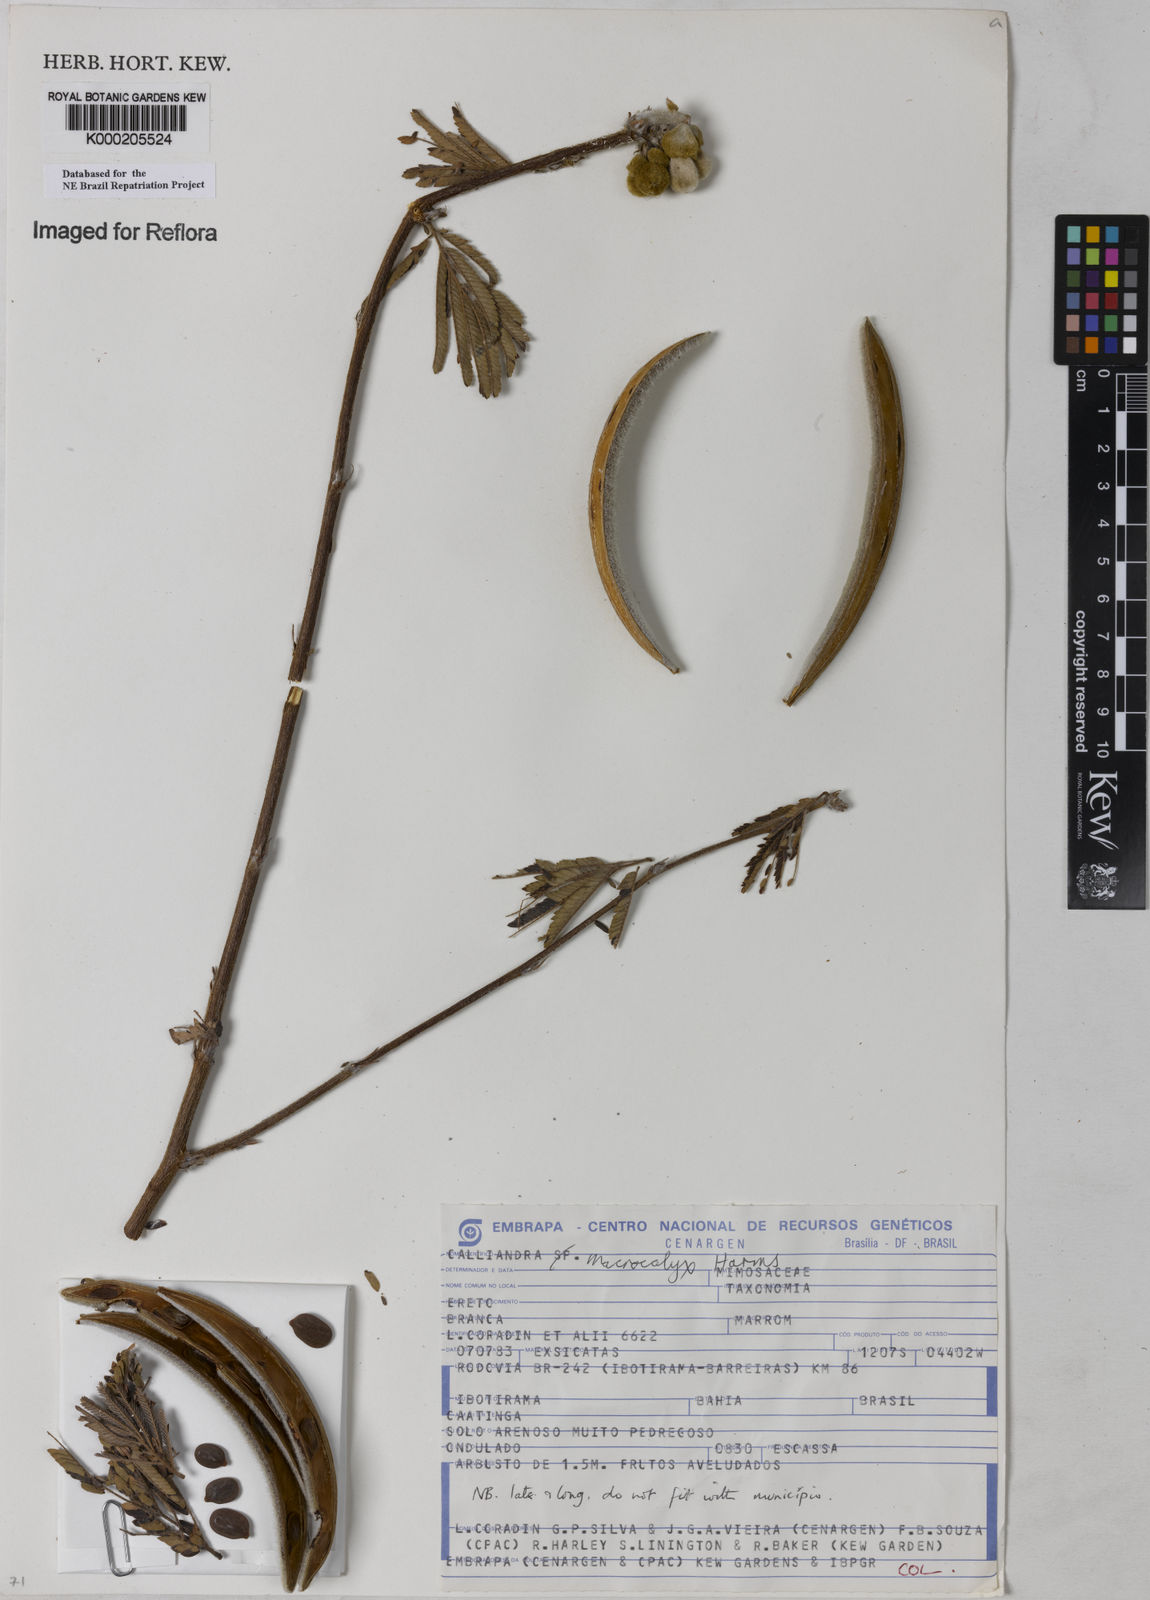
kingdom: Plantae
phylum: Tracheophyta
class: Magnoliopsida
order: Fabales
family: Fabaceae
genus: Calliandra
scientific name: Calliandra macrocalyx
